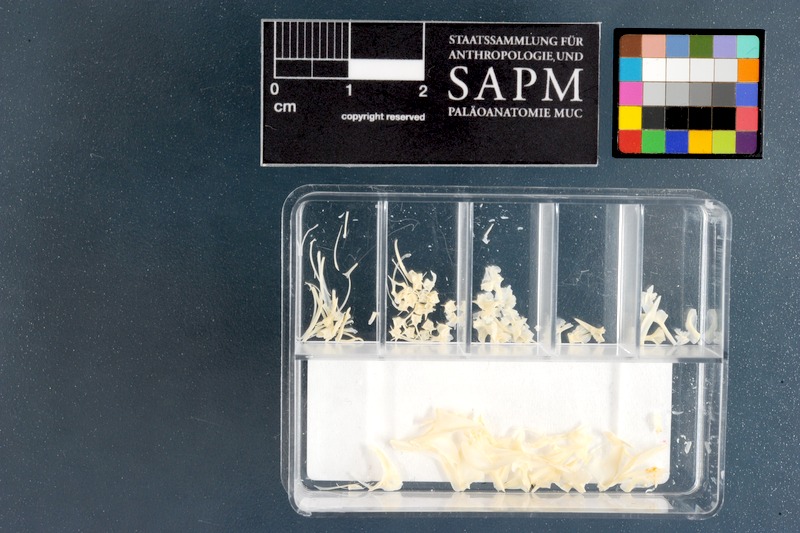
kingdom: Animalia
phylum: Chordata
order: Gobiesociformes
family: Gobiesocidae
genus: Chorisochismus
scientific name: Chorisochismus dentex
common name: Rocksucker
